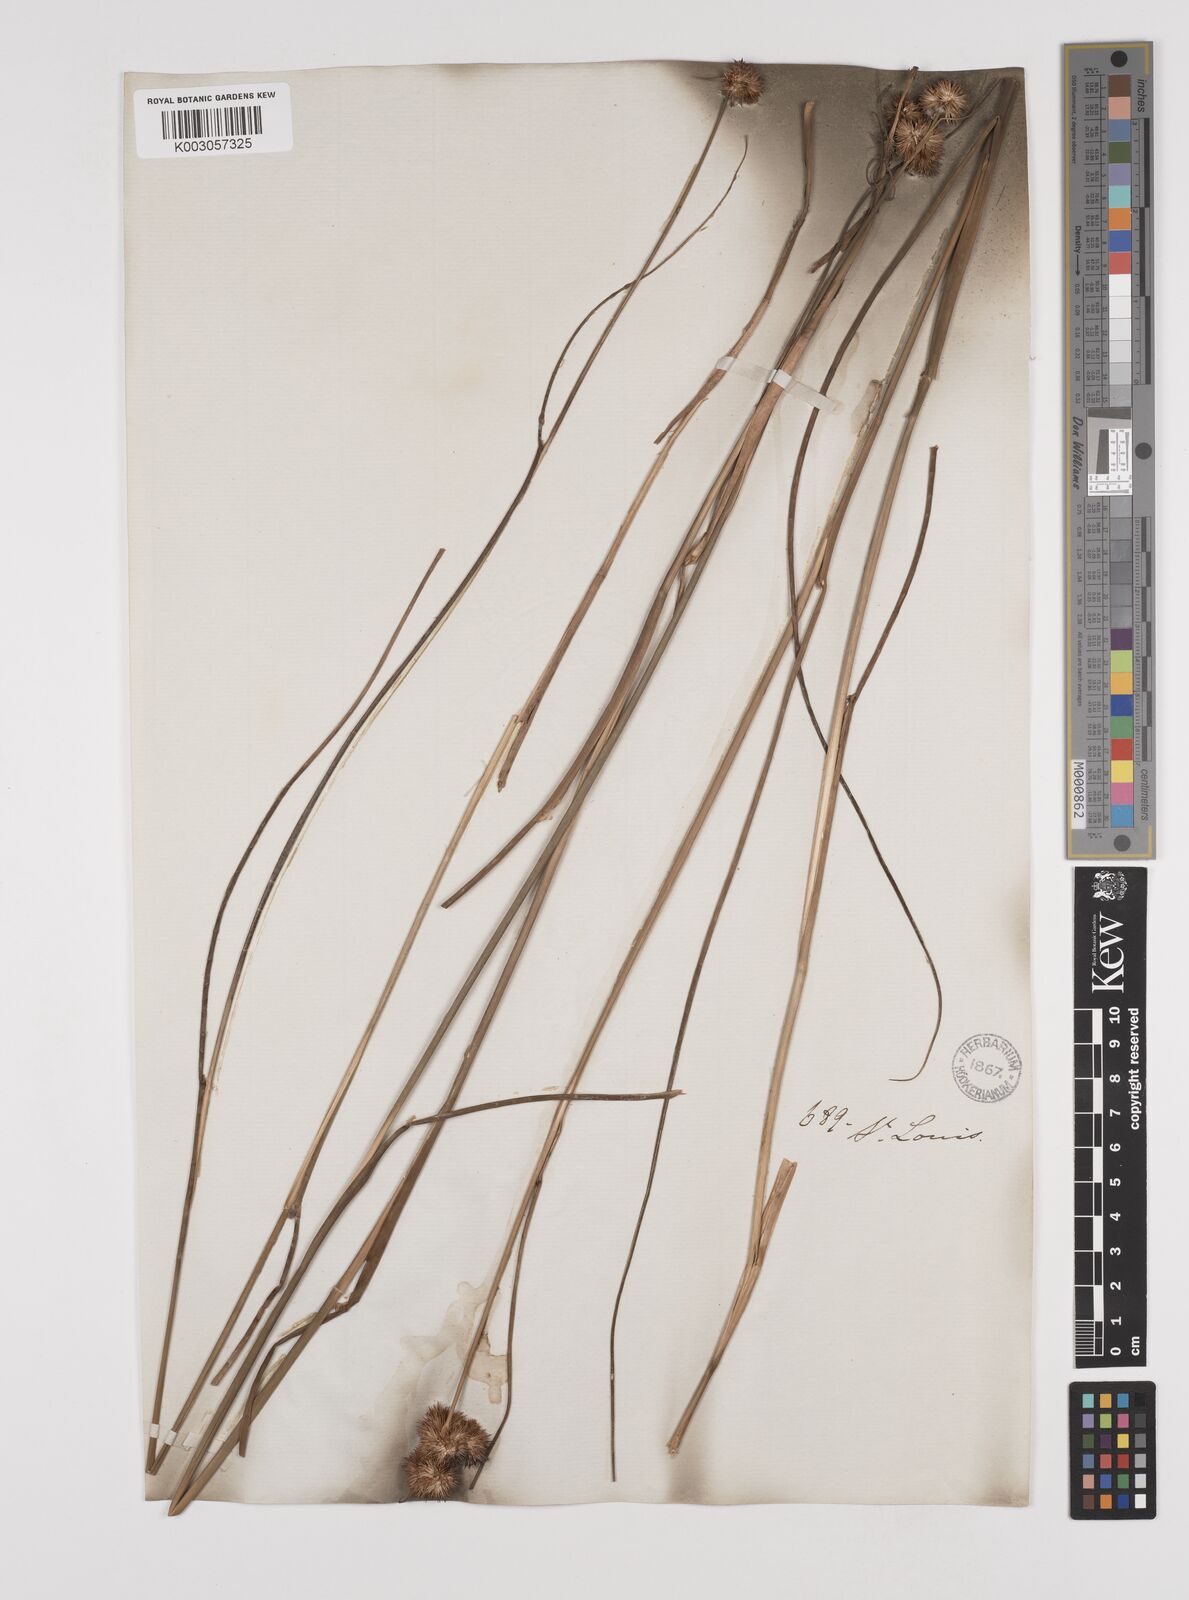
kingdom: Plantae
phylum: Tracheophyta
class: Liliopsida
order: Poales
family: Juncaceae
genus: Juncus
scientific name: Juncus nodosus
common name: Knotted rush
